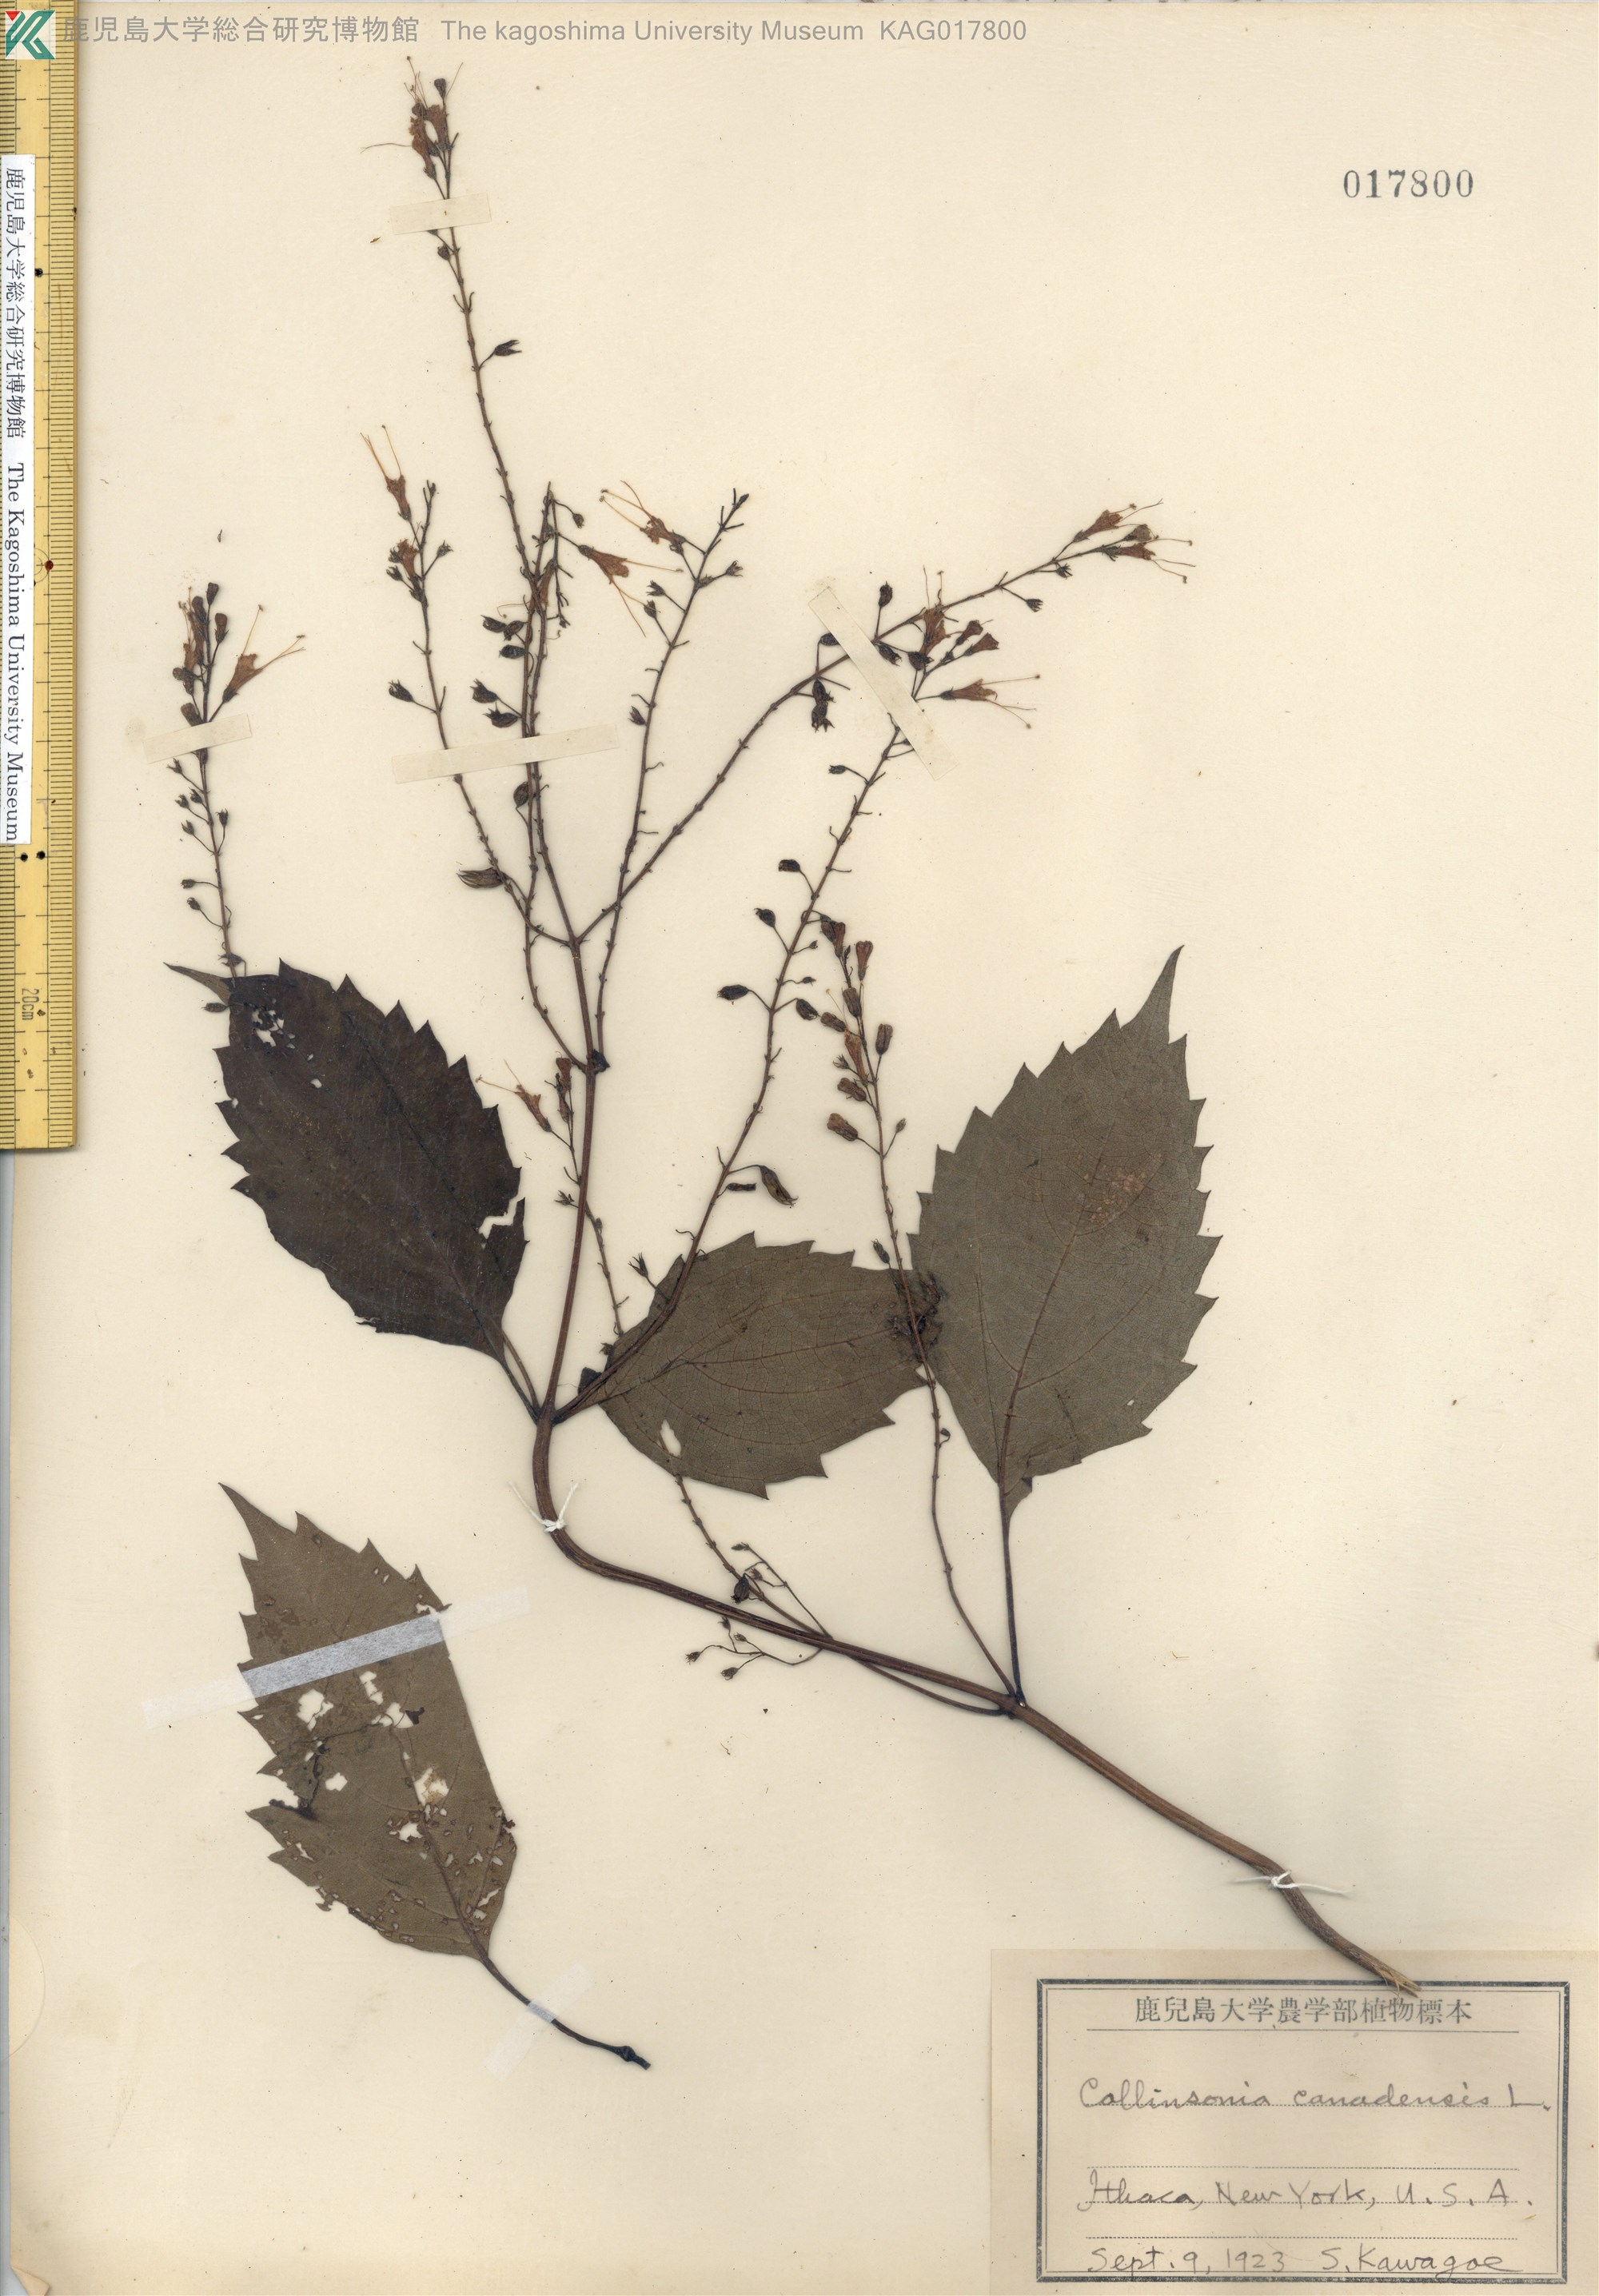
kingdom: Plantae
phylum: Tracheophyta
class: Magnoliopsida
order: Lamiales
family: Lamiaceae
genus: Collinsonia
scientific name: Collinsonia canadensis
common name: Northern horsebalm
